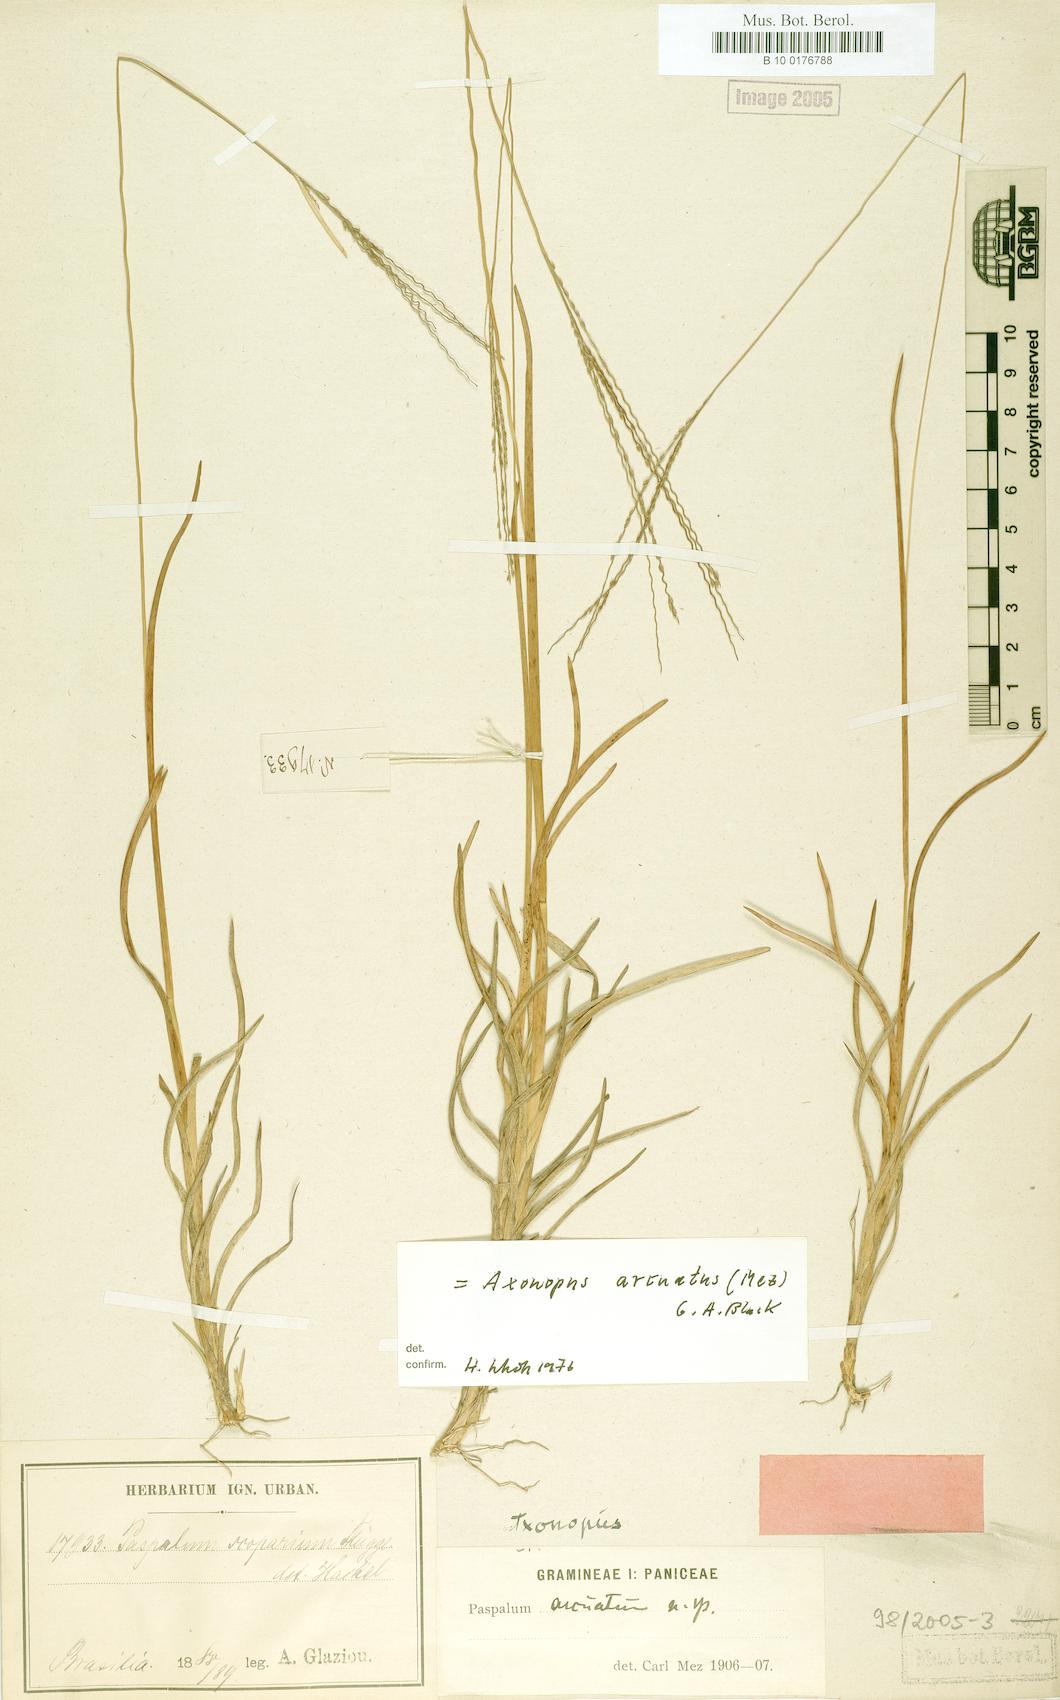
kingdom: Plantae
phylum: Tracheophyta
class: Liliopsida
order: Poales
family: Poaceae
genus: Axonopus
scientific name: Axonopus polydactylus
